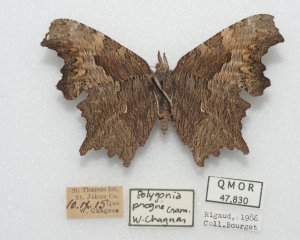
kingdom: Animalia
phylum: Arthropoda
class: Insecta
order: Lepidoptera
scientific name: Lepidoptera
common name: Butterflies
